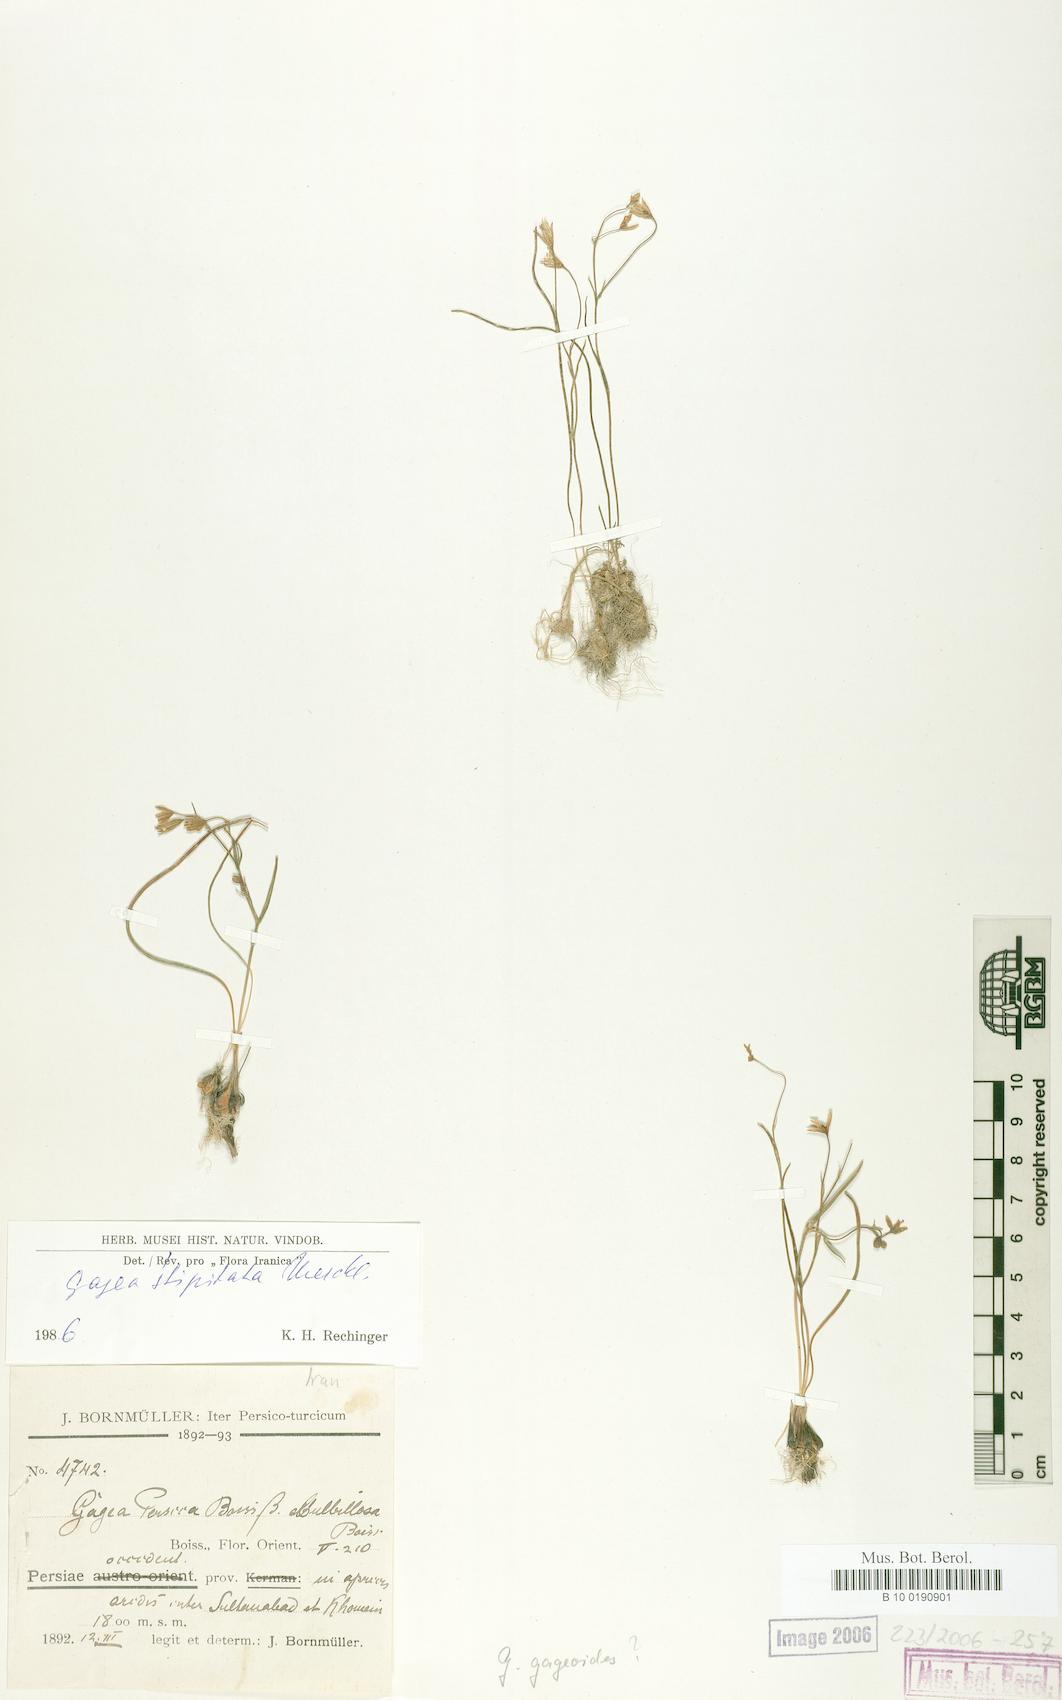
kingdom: Plantae
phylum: Tracheophyta
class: Liliopsida
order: Liliales
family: Liliaceae
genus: Gagea
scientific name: Gagea kunawurensis
